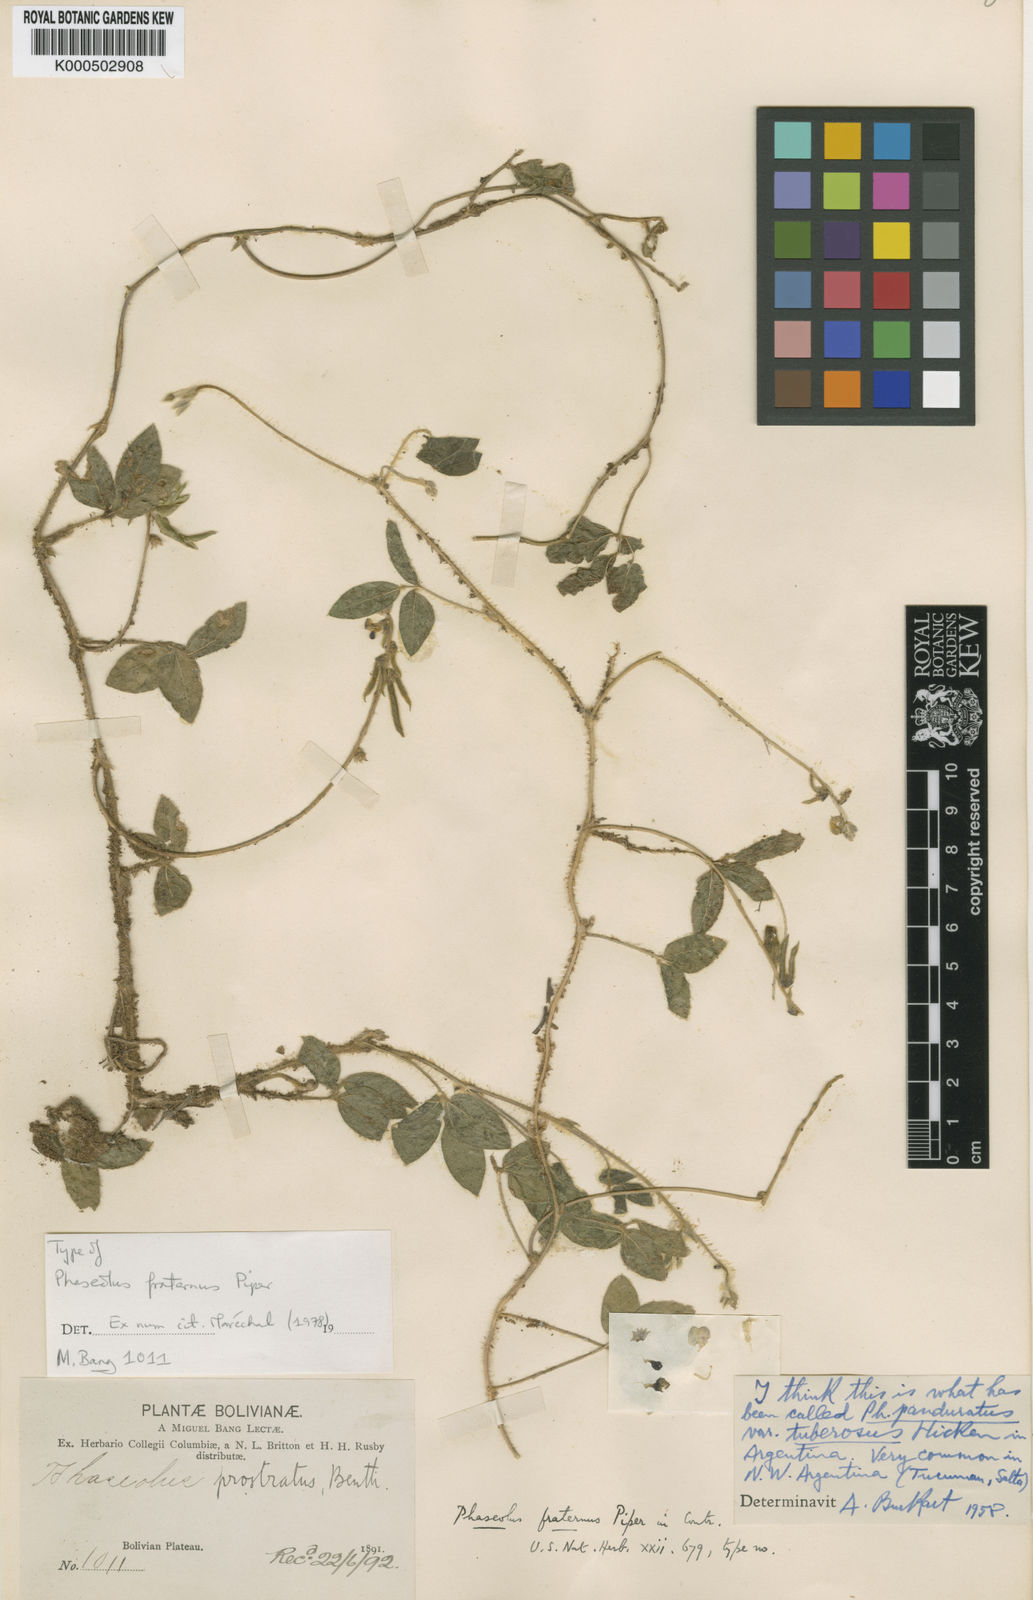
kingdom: Plantae
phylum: Tracheophyta
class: Magnoliopsida
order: Fabales
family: Fabaceae
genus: Macroptilium
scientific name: Macroptilium gibbosifolium
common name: Variableleaf bushbean
